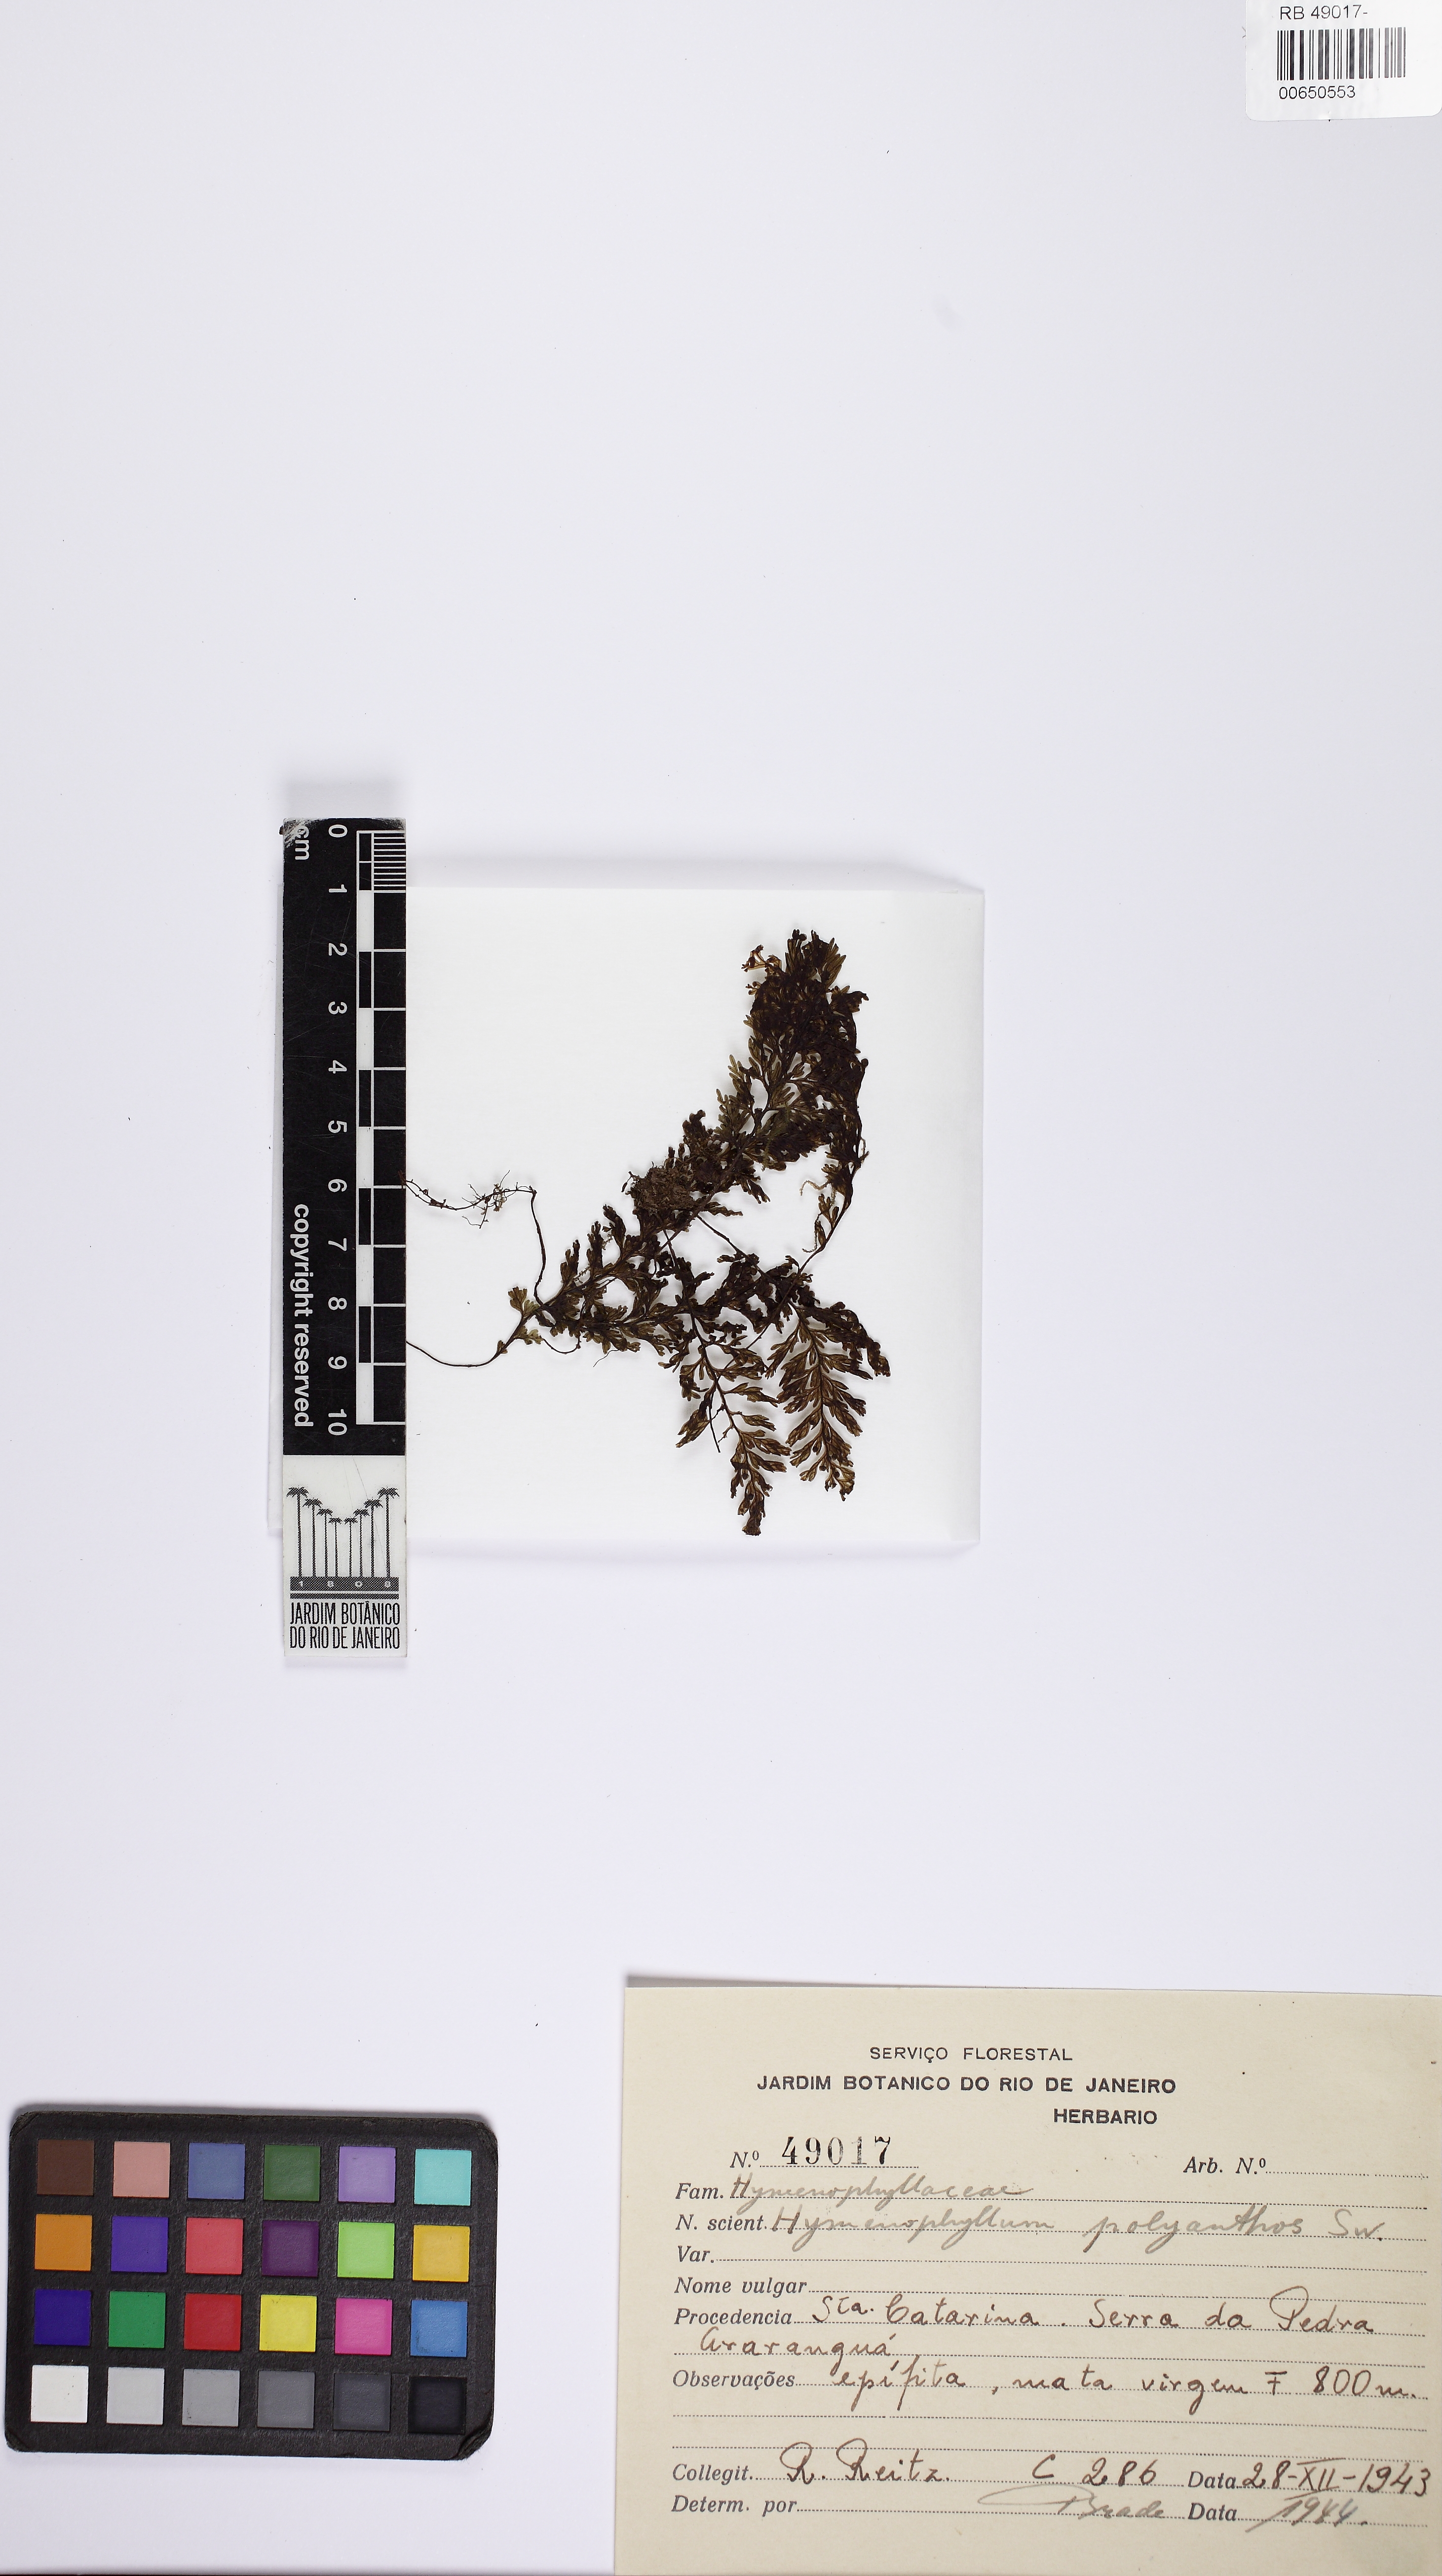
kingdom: Plantae
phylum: Tracheophyta
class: Polypodiopsida
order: Hymenophyllales
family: Hymenophyllaceae
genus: Hymenophyllum
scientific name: Hymenophyllum polyanthos
